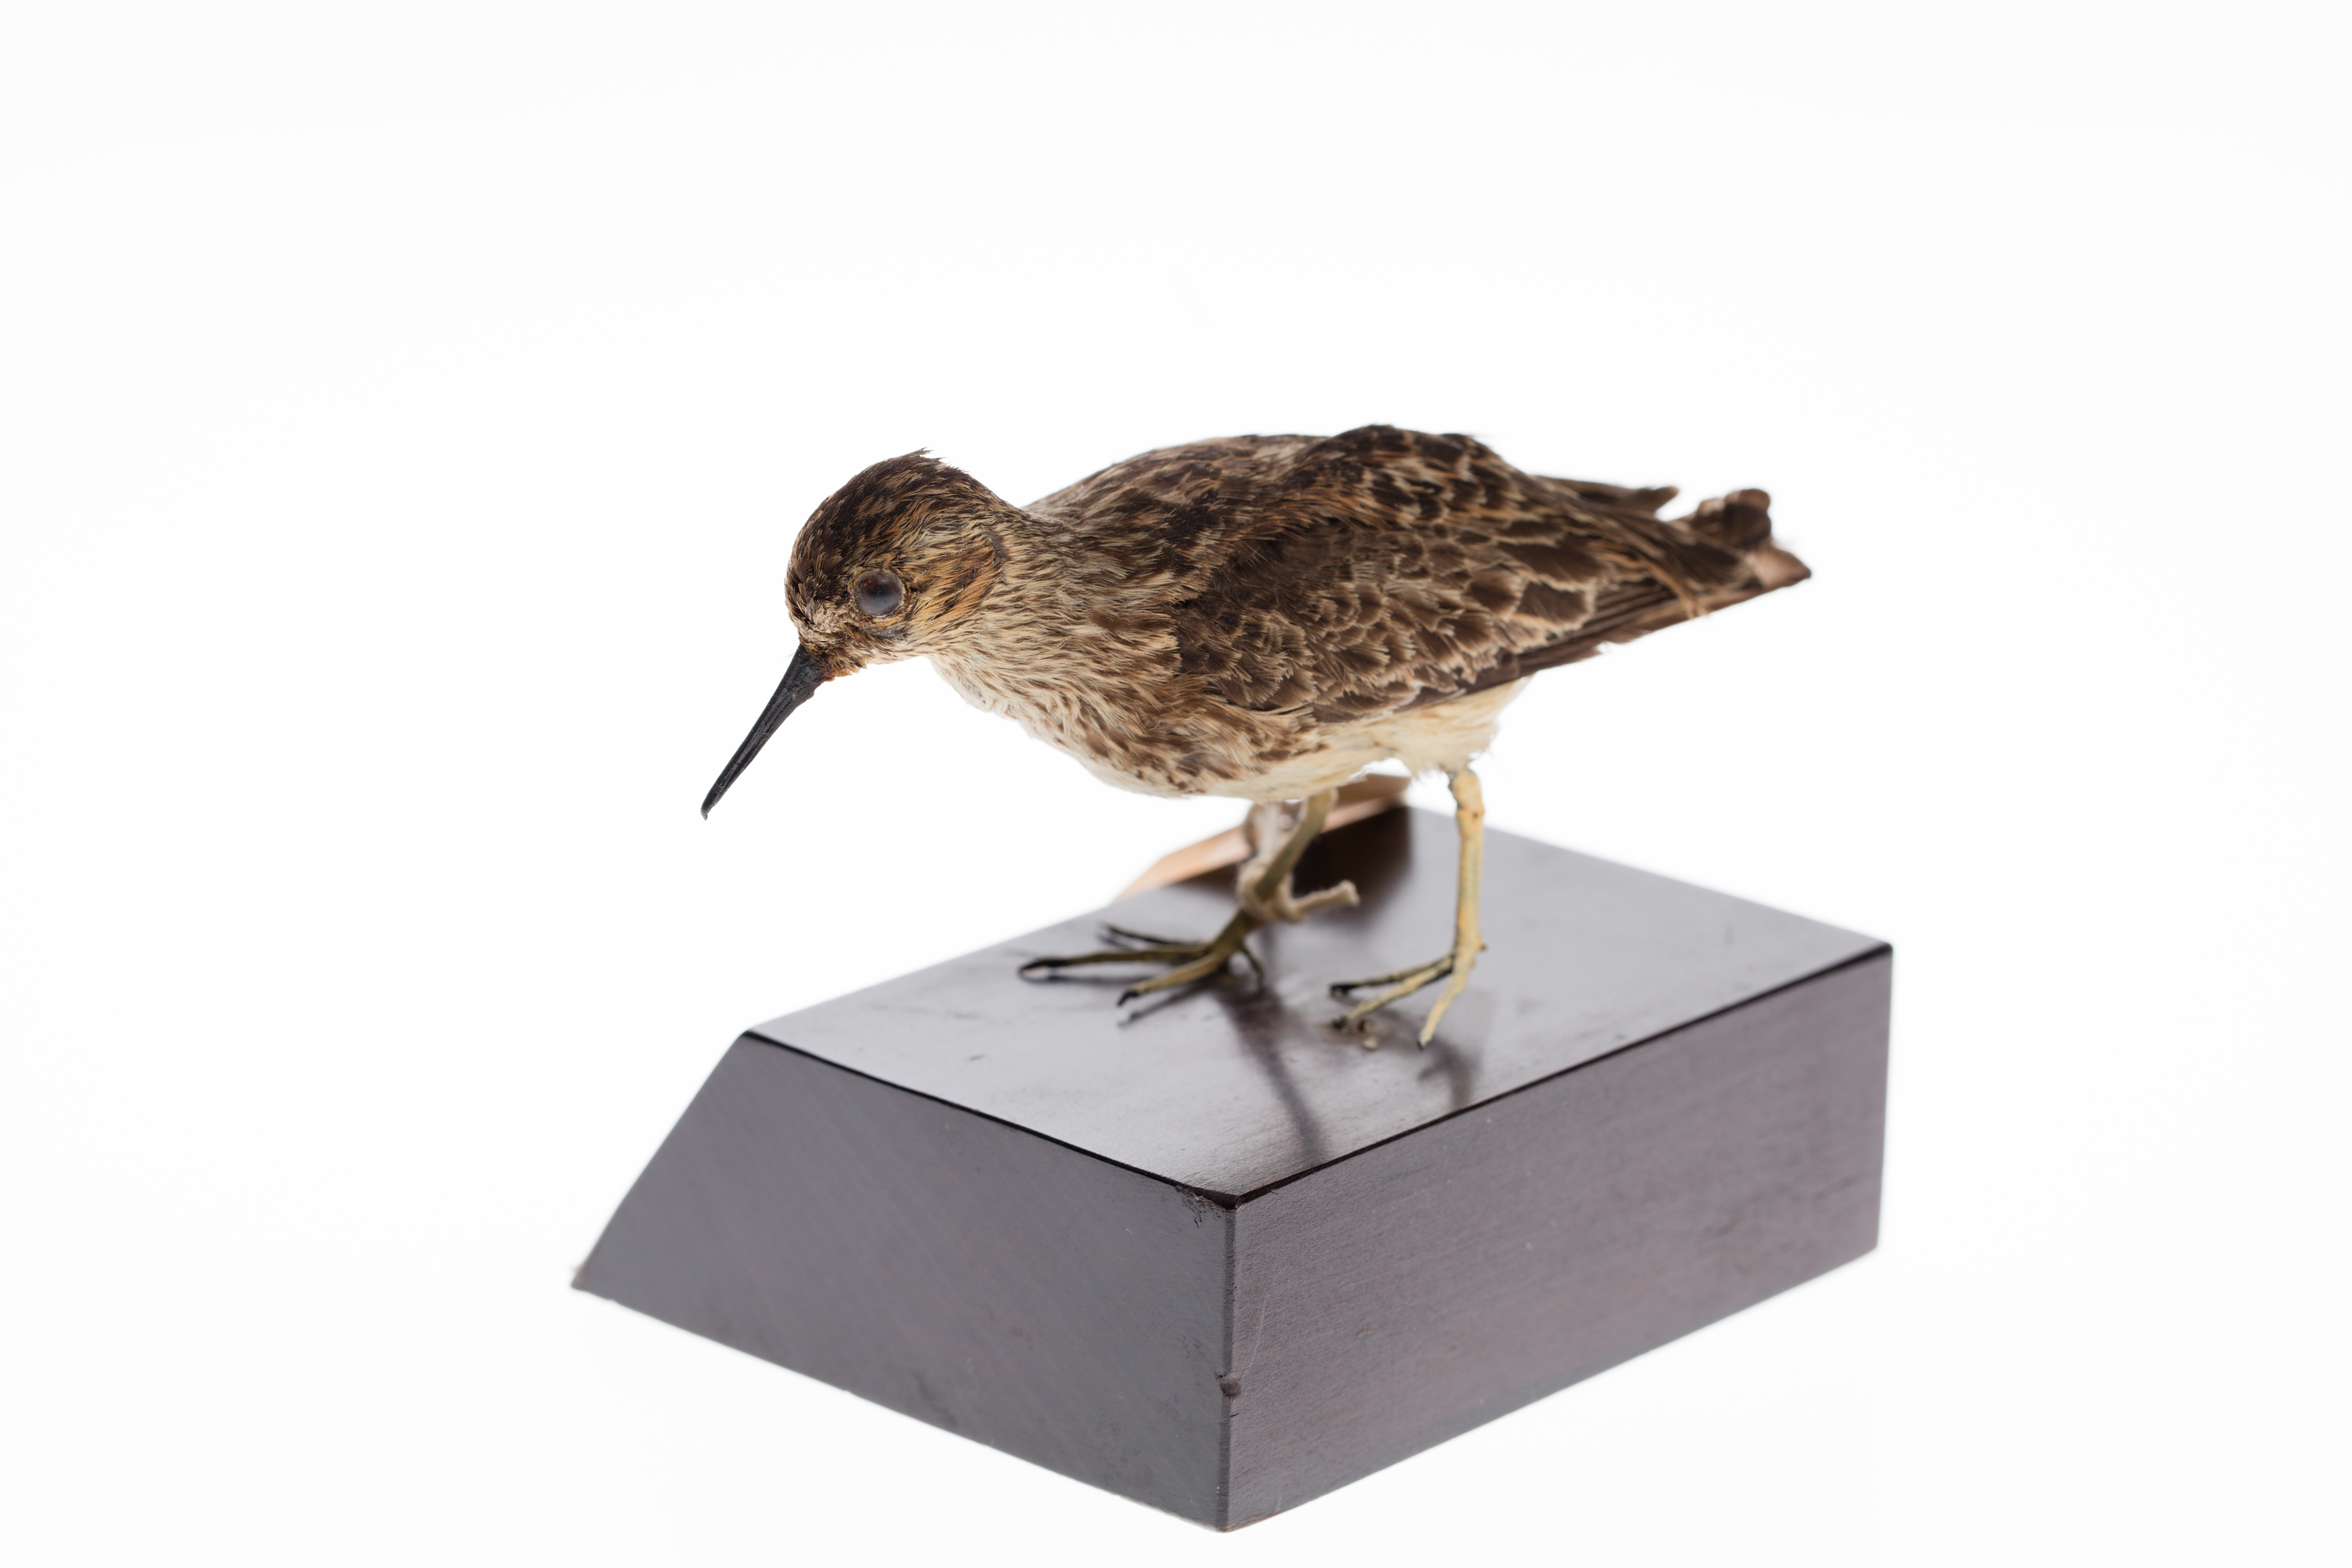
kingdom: Animalia
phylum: Chordata
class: Aves
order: Charadriiformes
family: Scolopacidae
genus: Calidris
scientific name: Calidris minutilla
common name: Least sandpiper
